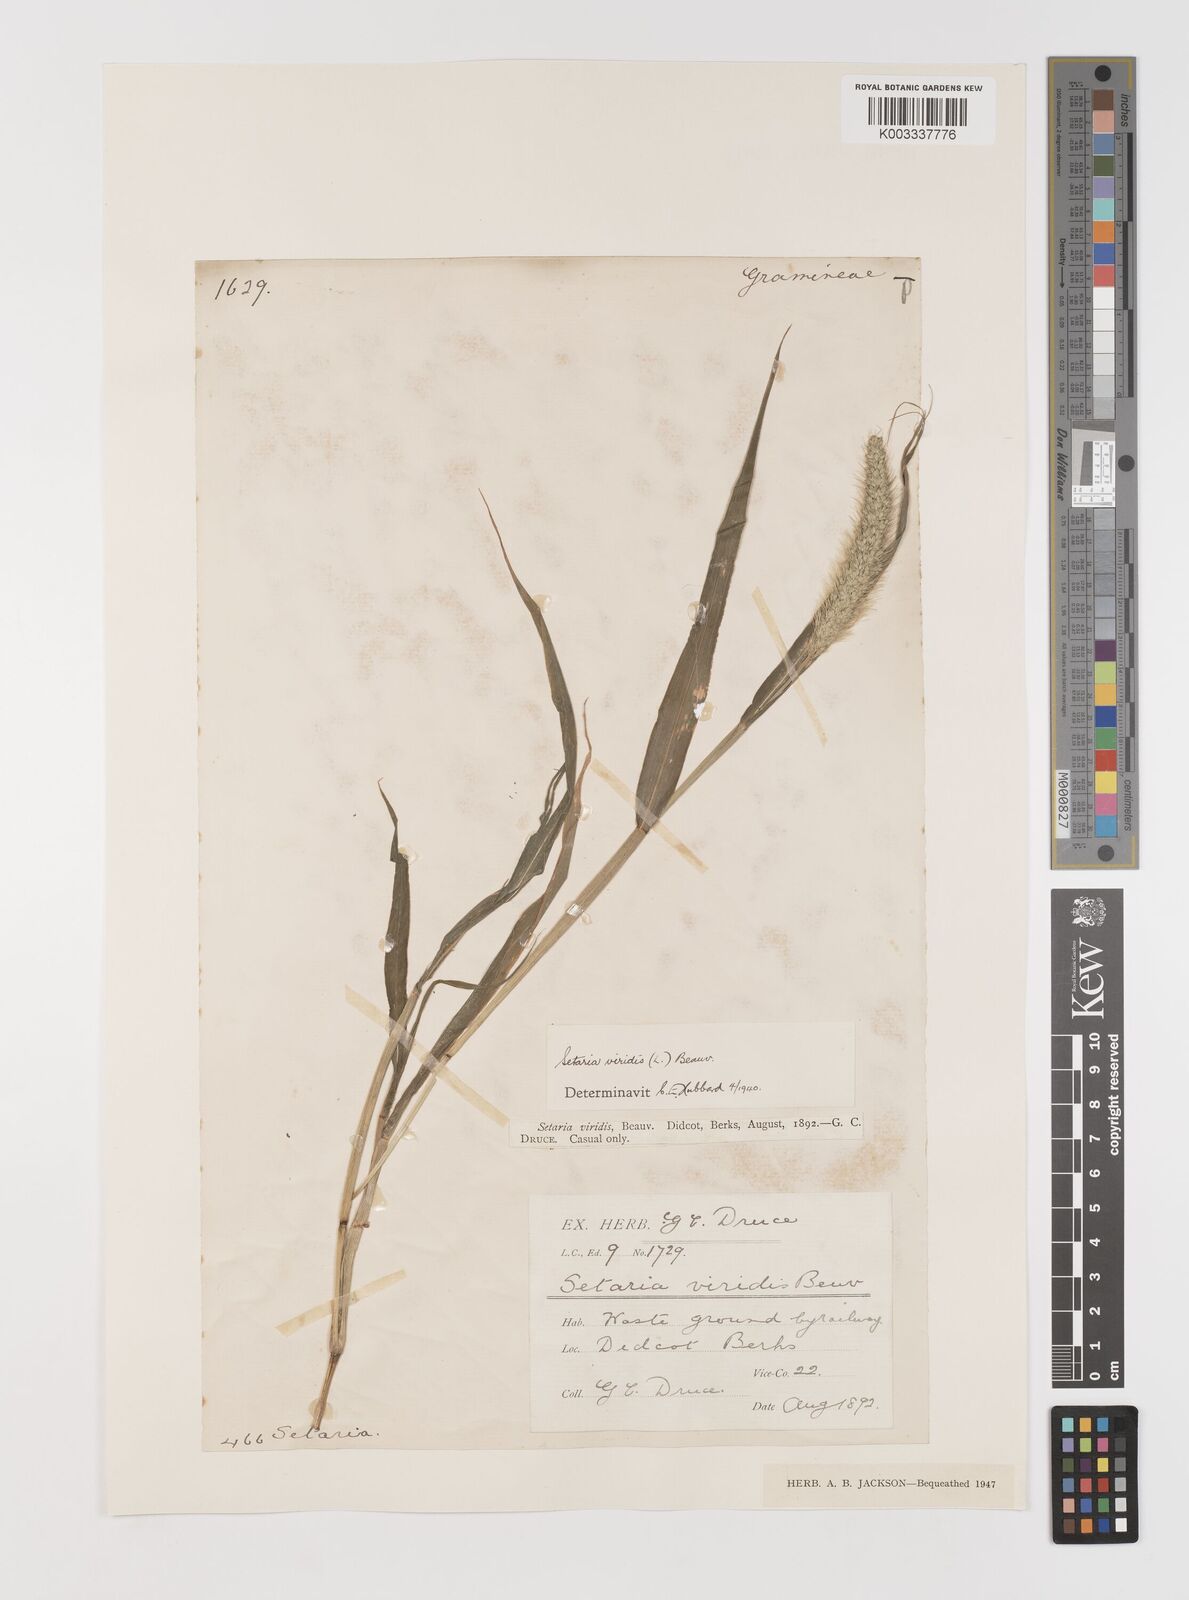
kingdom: Plantae
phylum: Tracheophyta
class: Liliopsida
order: Poales
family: Poaceae
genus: Setaria
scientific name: Setaria viridis
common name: Green bristlegrass
